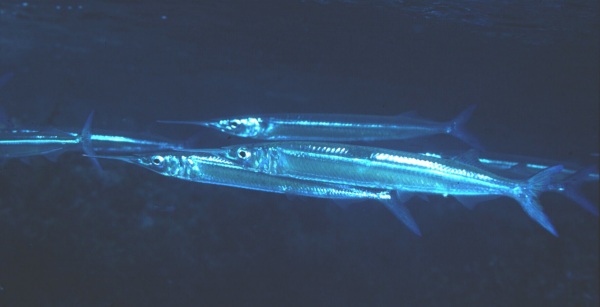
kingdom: Animalia
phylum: Chordata
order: Beloniformes
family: Hemiramphidae
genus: Hyporhamphus
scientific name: Hyporhamphus dussumieri
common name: Dussumier's halfbeak
